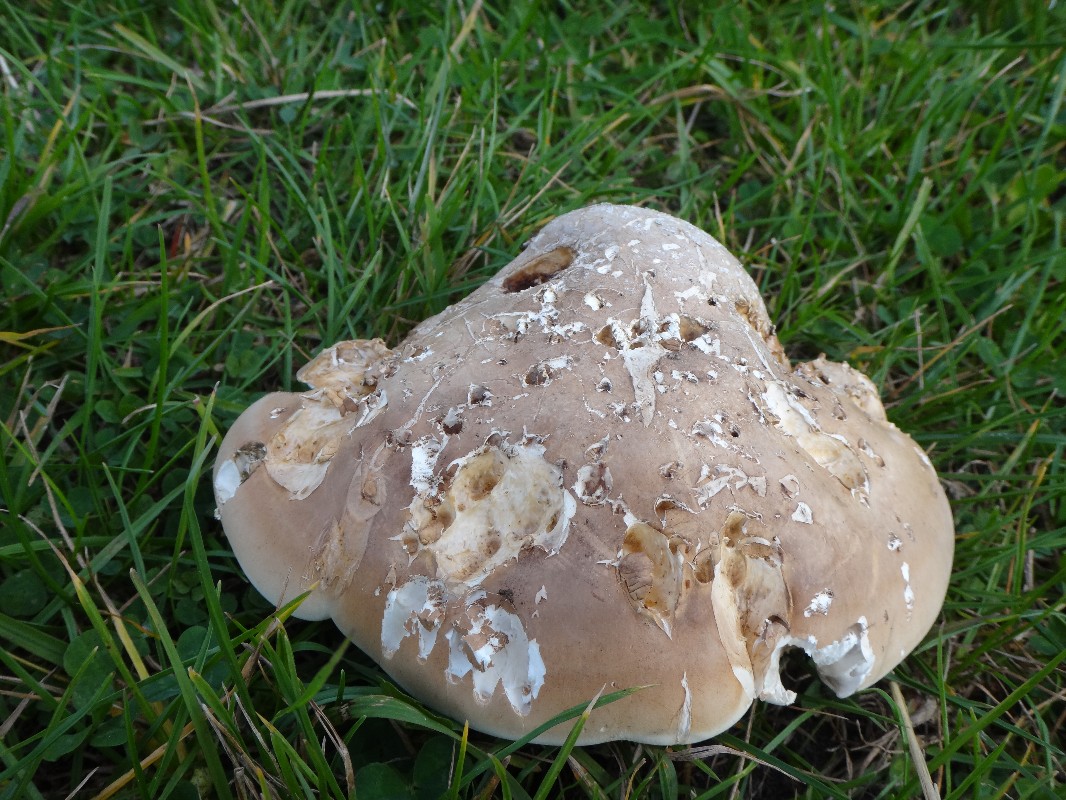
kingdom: Fungi
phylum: Basidiomycota
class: Agaricomycetes
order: Polyporales
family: Fomitopsidaceae
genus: Fomitopsis
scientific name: Fomitopsis betulina
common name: birkeporesvamp
